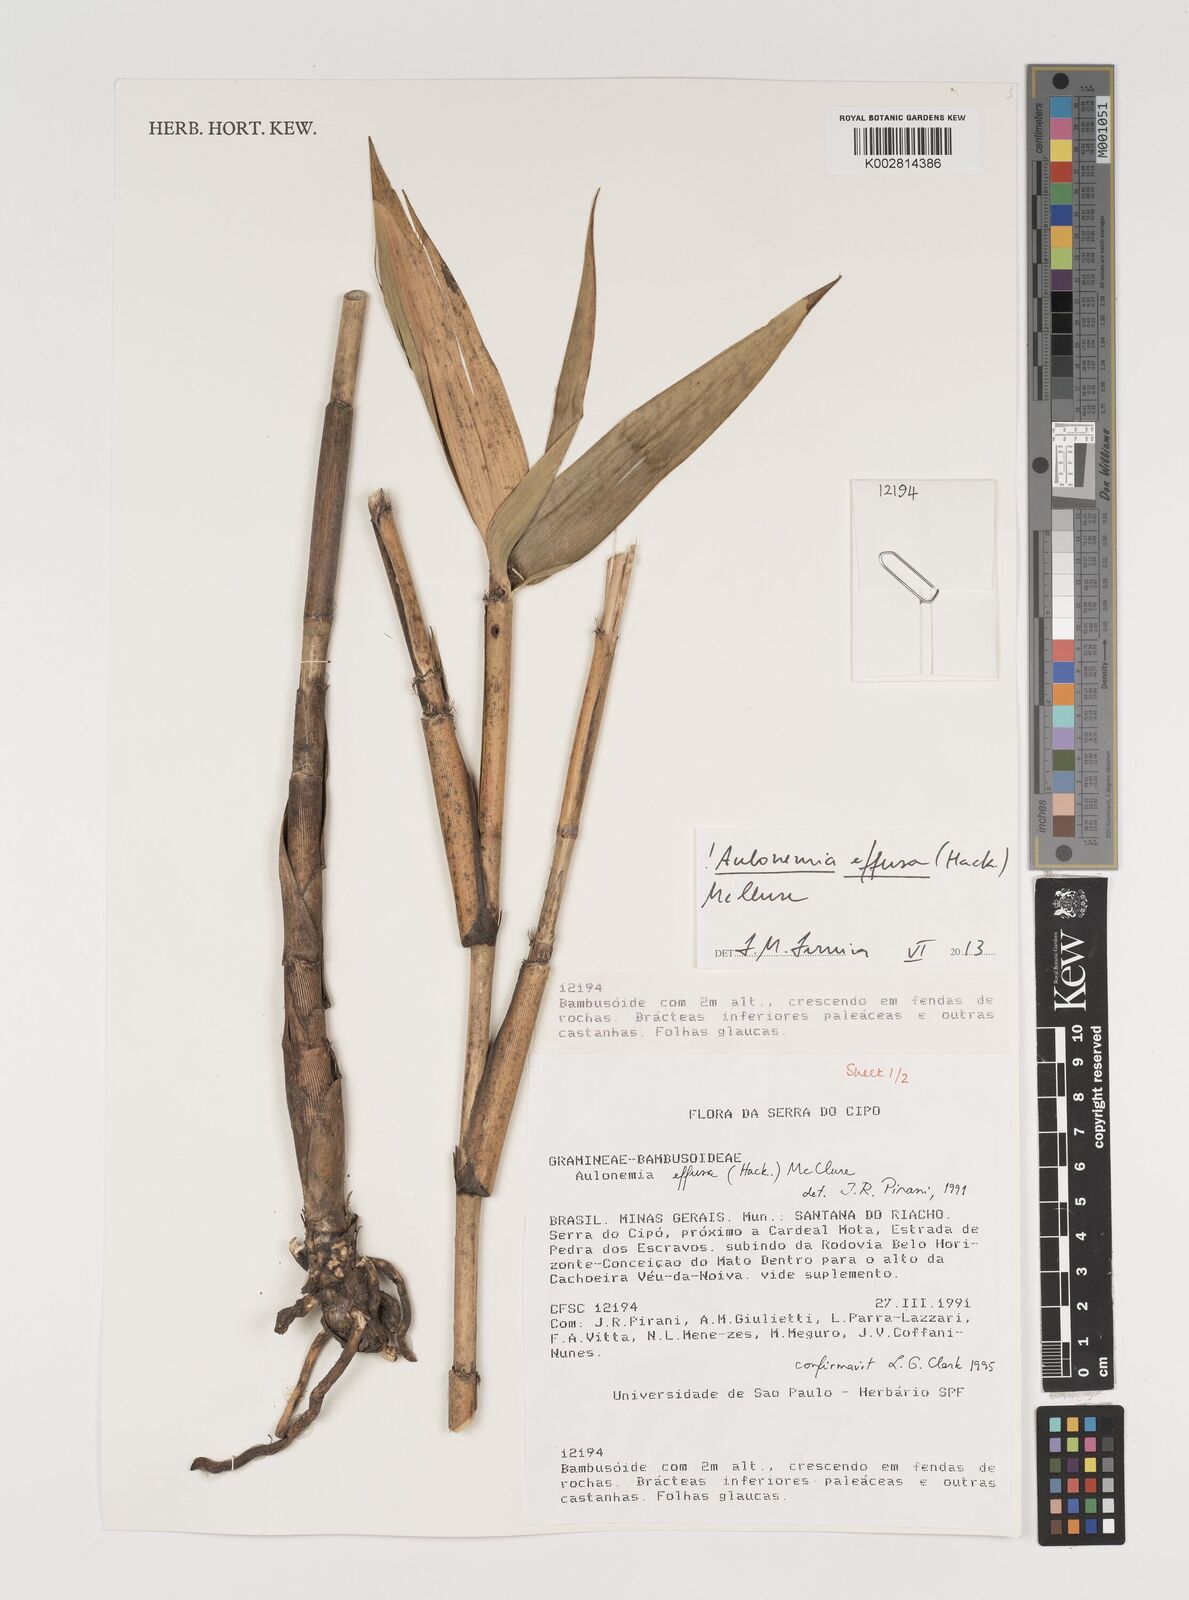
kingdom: Plantae
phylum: Tracheophyta
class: Liliopsida
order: Poales
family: Poaceae
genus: Aulonemia
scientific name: Aulonemia effusa
